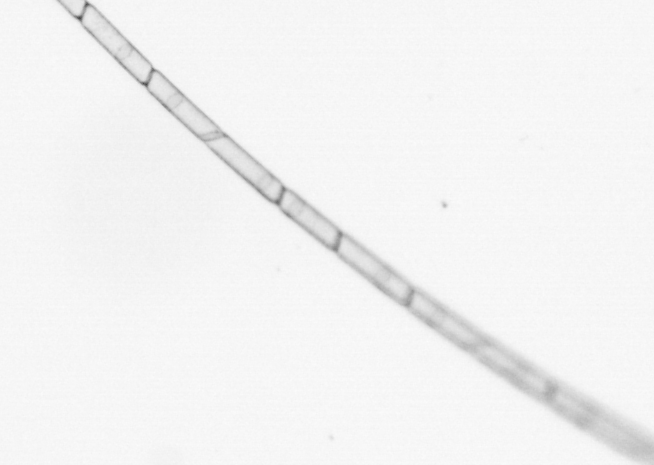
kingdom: Chromista
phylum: Ochrophyta
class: Bacillariophyceae
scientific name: Bacillariophyceae
